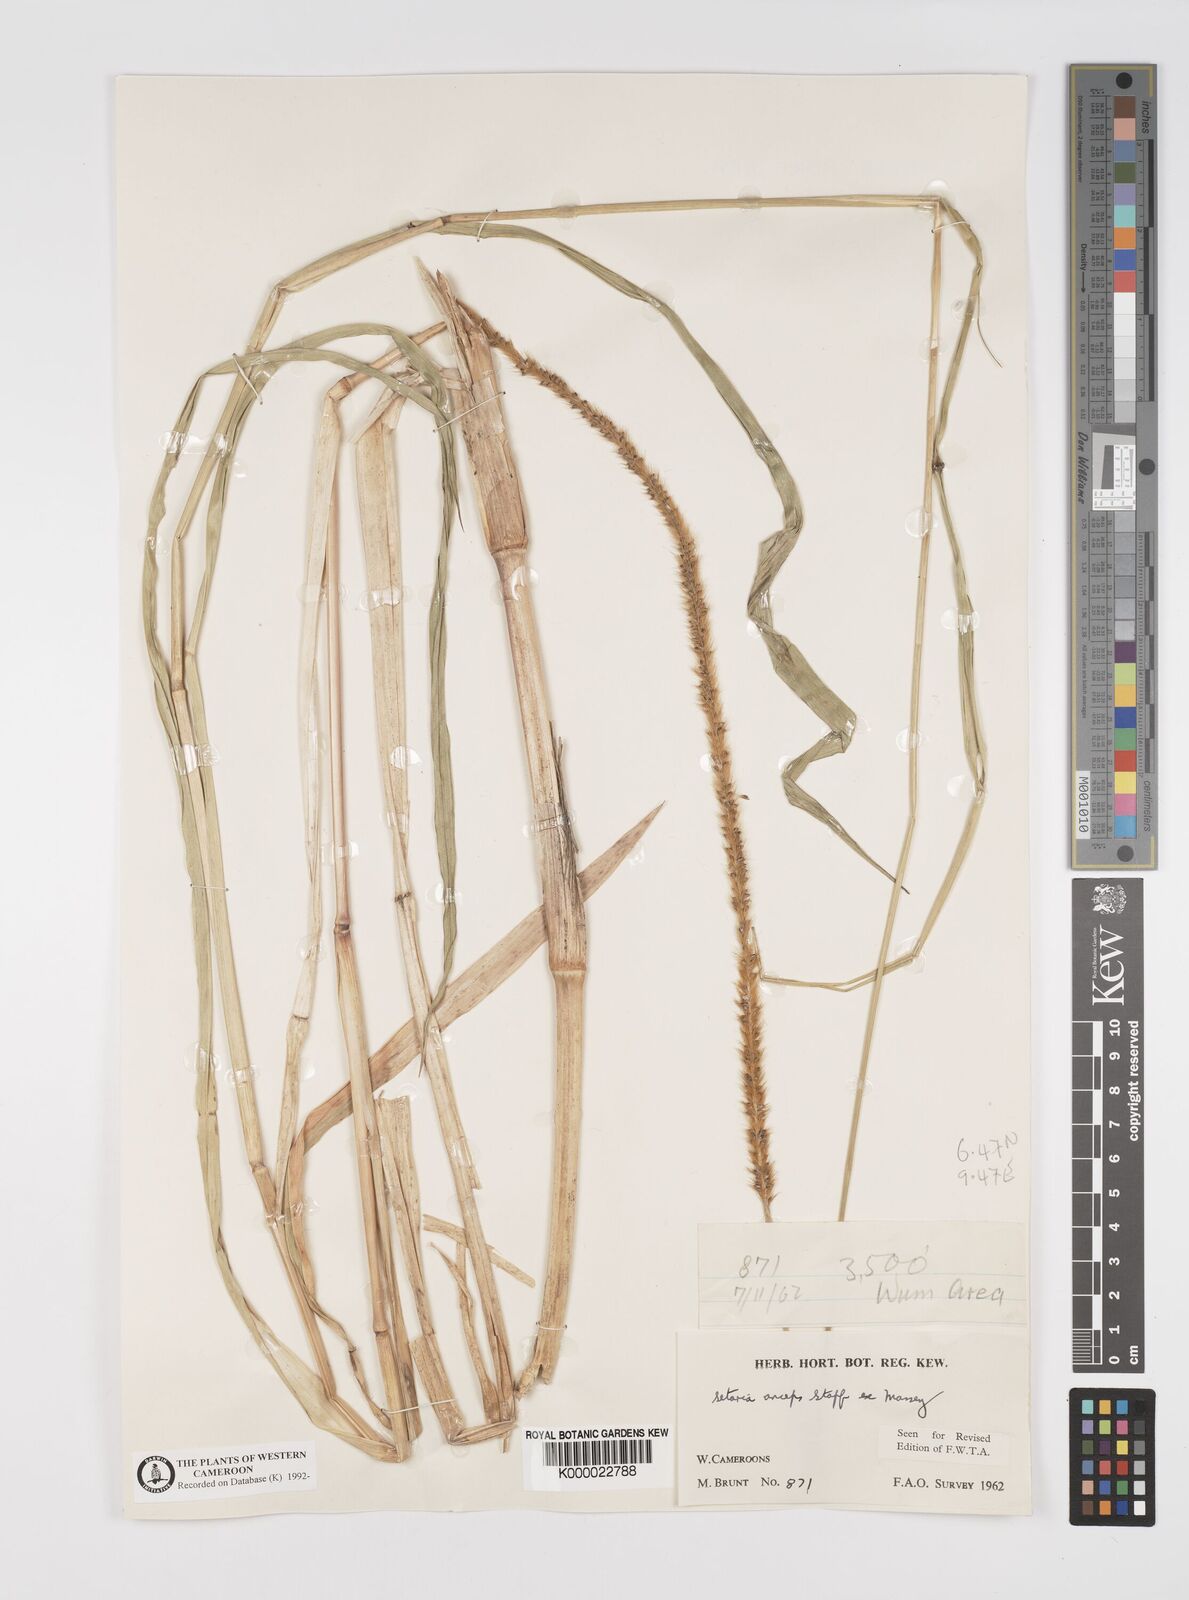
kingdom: Plantae
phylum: Tracheophyta
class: Liliopsida
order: Poales
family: Poaceae
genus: Setaria
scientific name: Setaria sphacelata
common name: African bristlegrass
